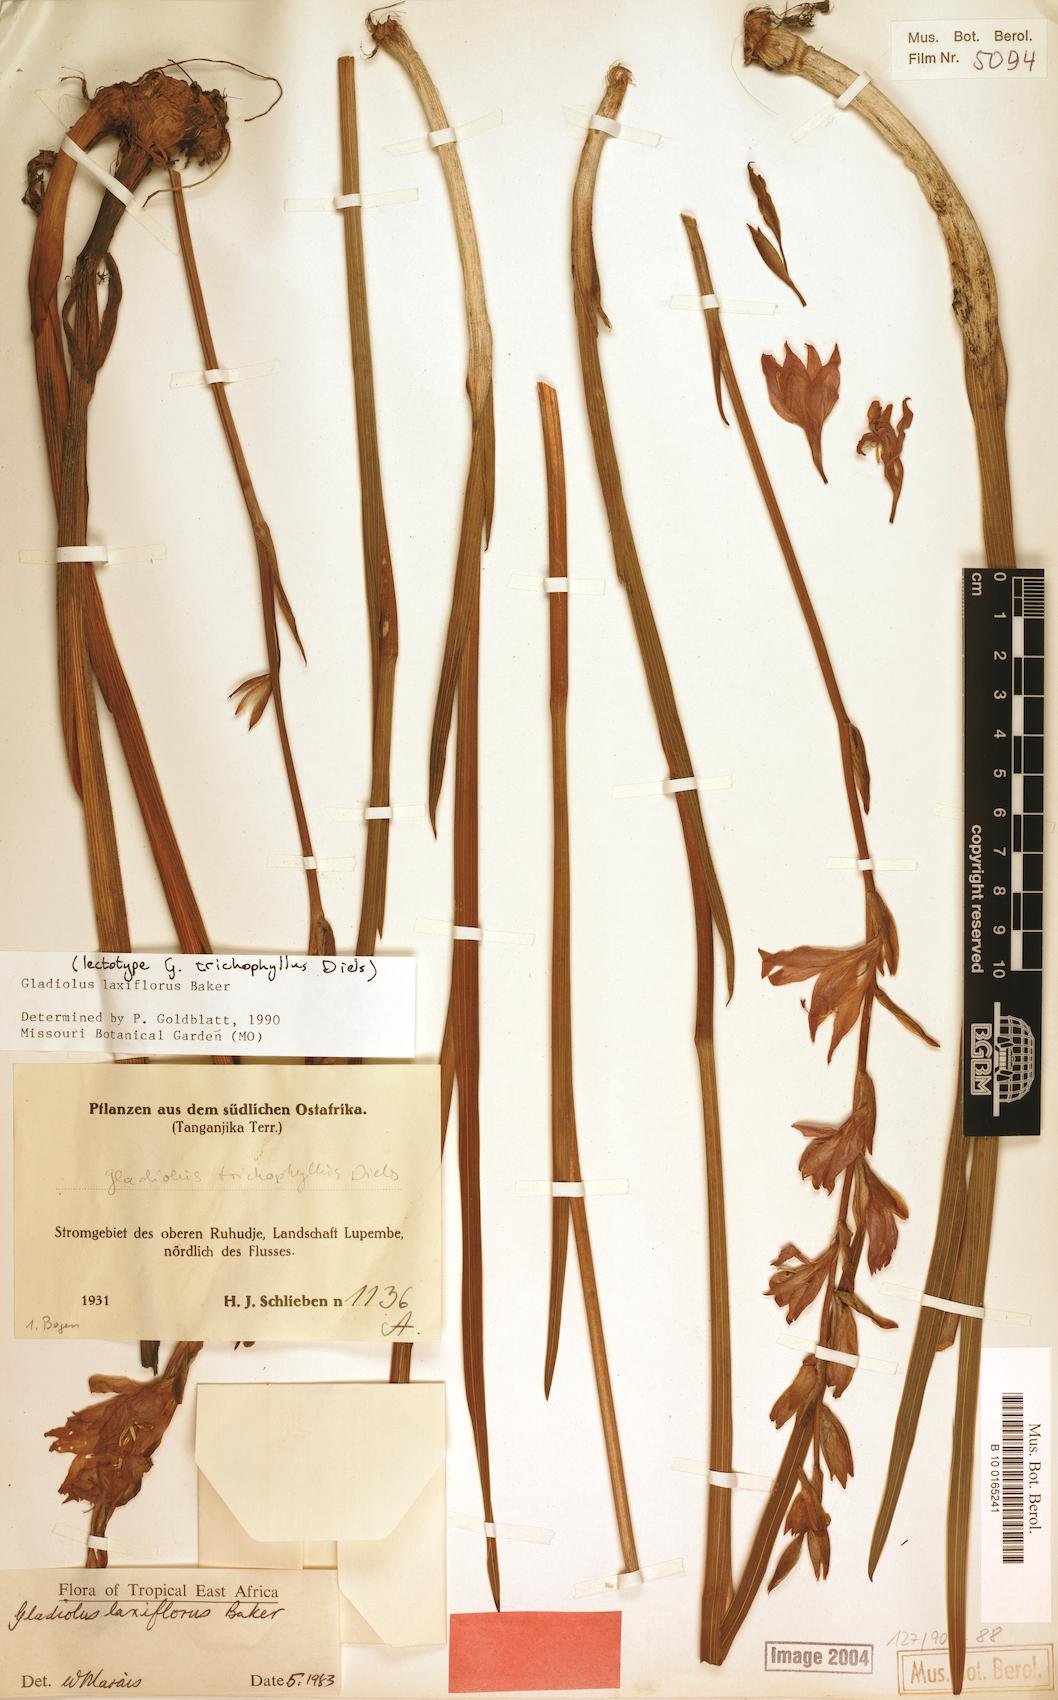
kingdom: Plantae
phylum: Tracheophyta
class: Liliopsida
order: Asparagales
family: Iridaceae
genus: Gladiolus
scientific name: Gladiolus laxiflorus
